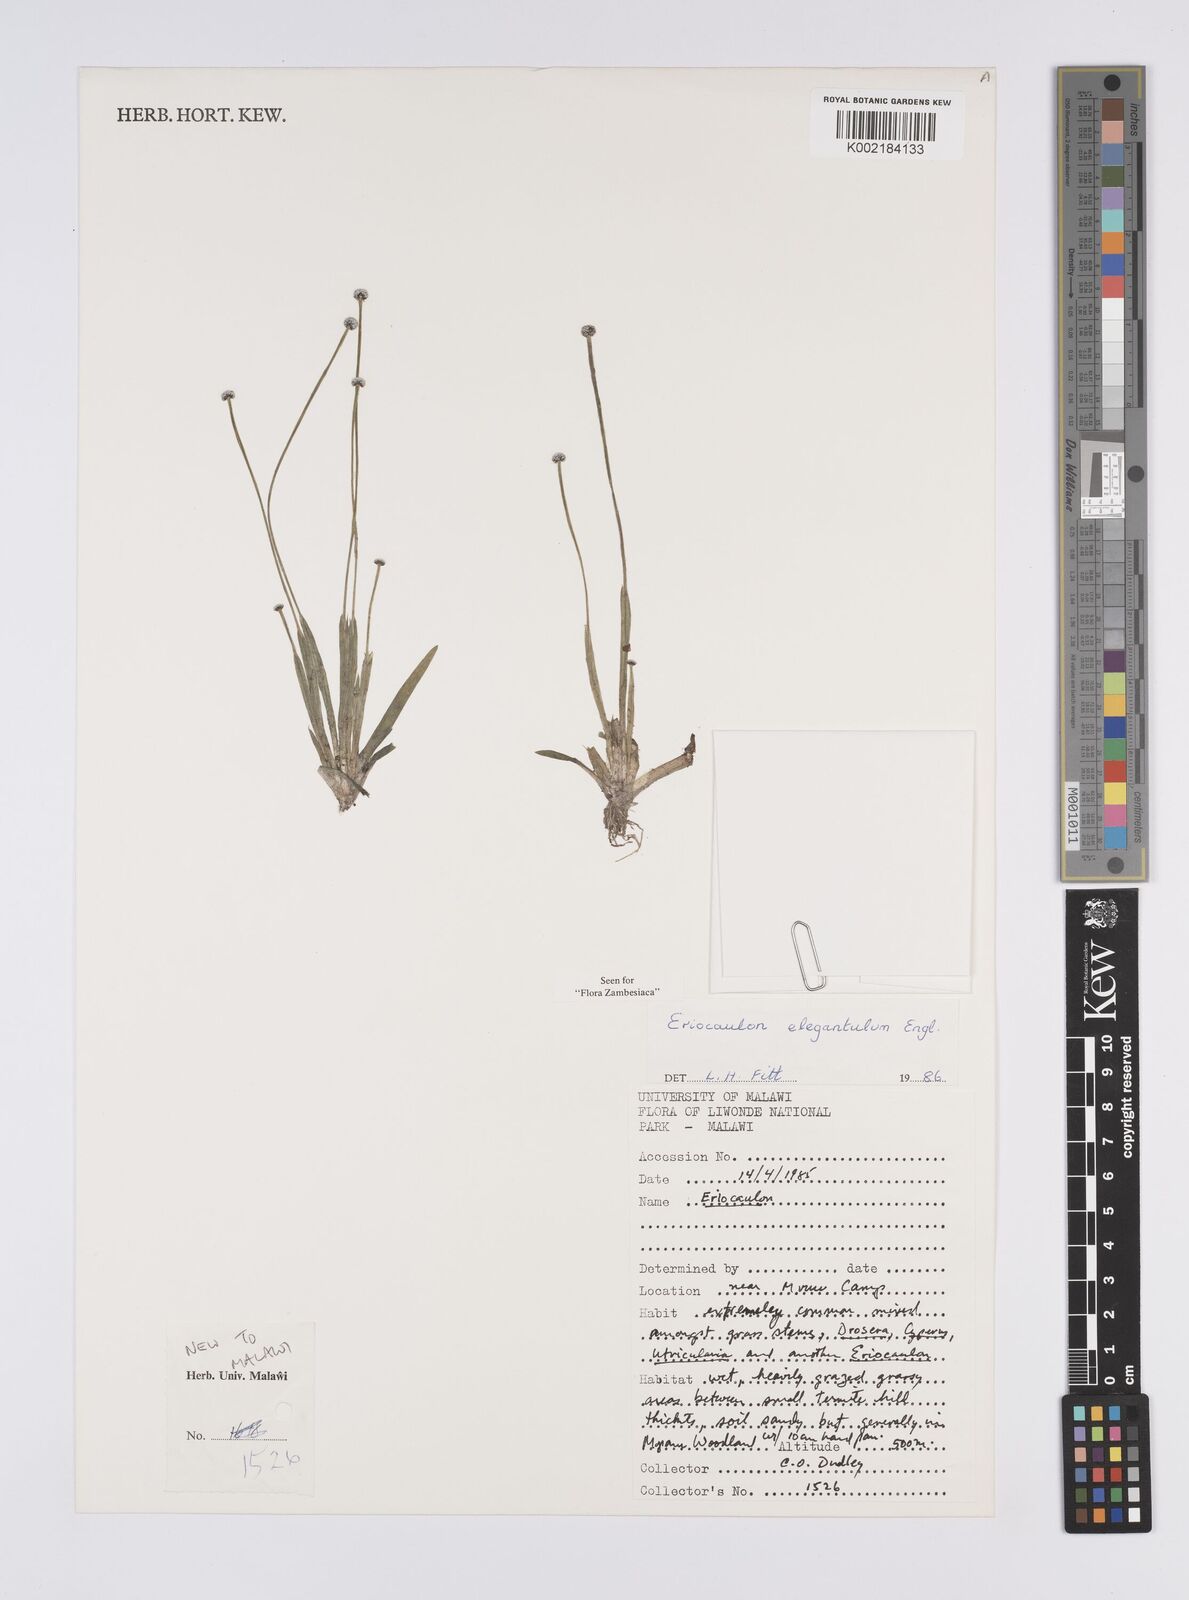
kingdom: Plantae
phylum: Tracheophyta
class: Liliopsida
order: Poales
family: Eriocaulaceae
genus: Eriocaulon
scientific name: Eriocaulon elegantulum
